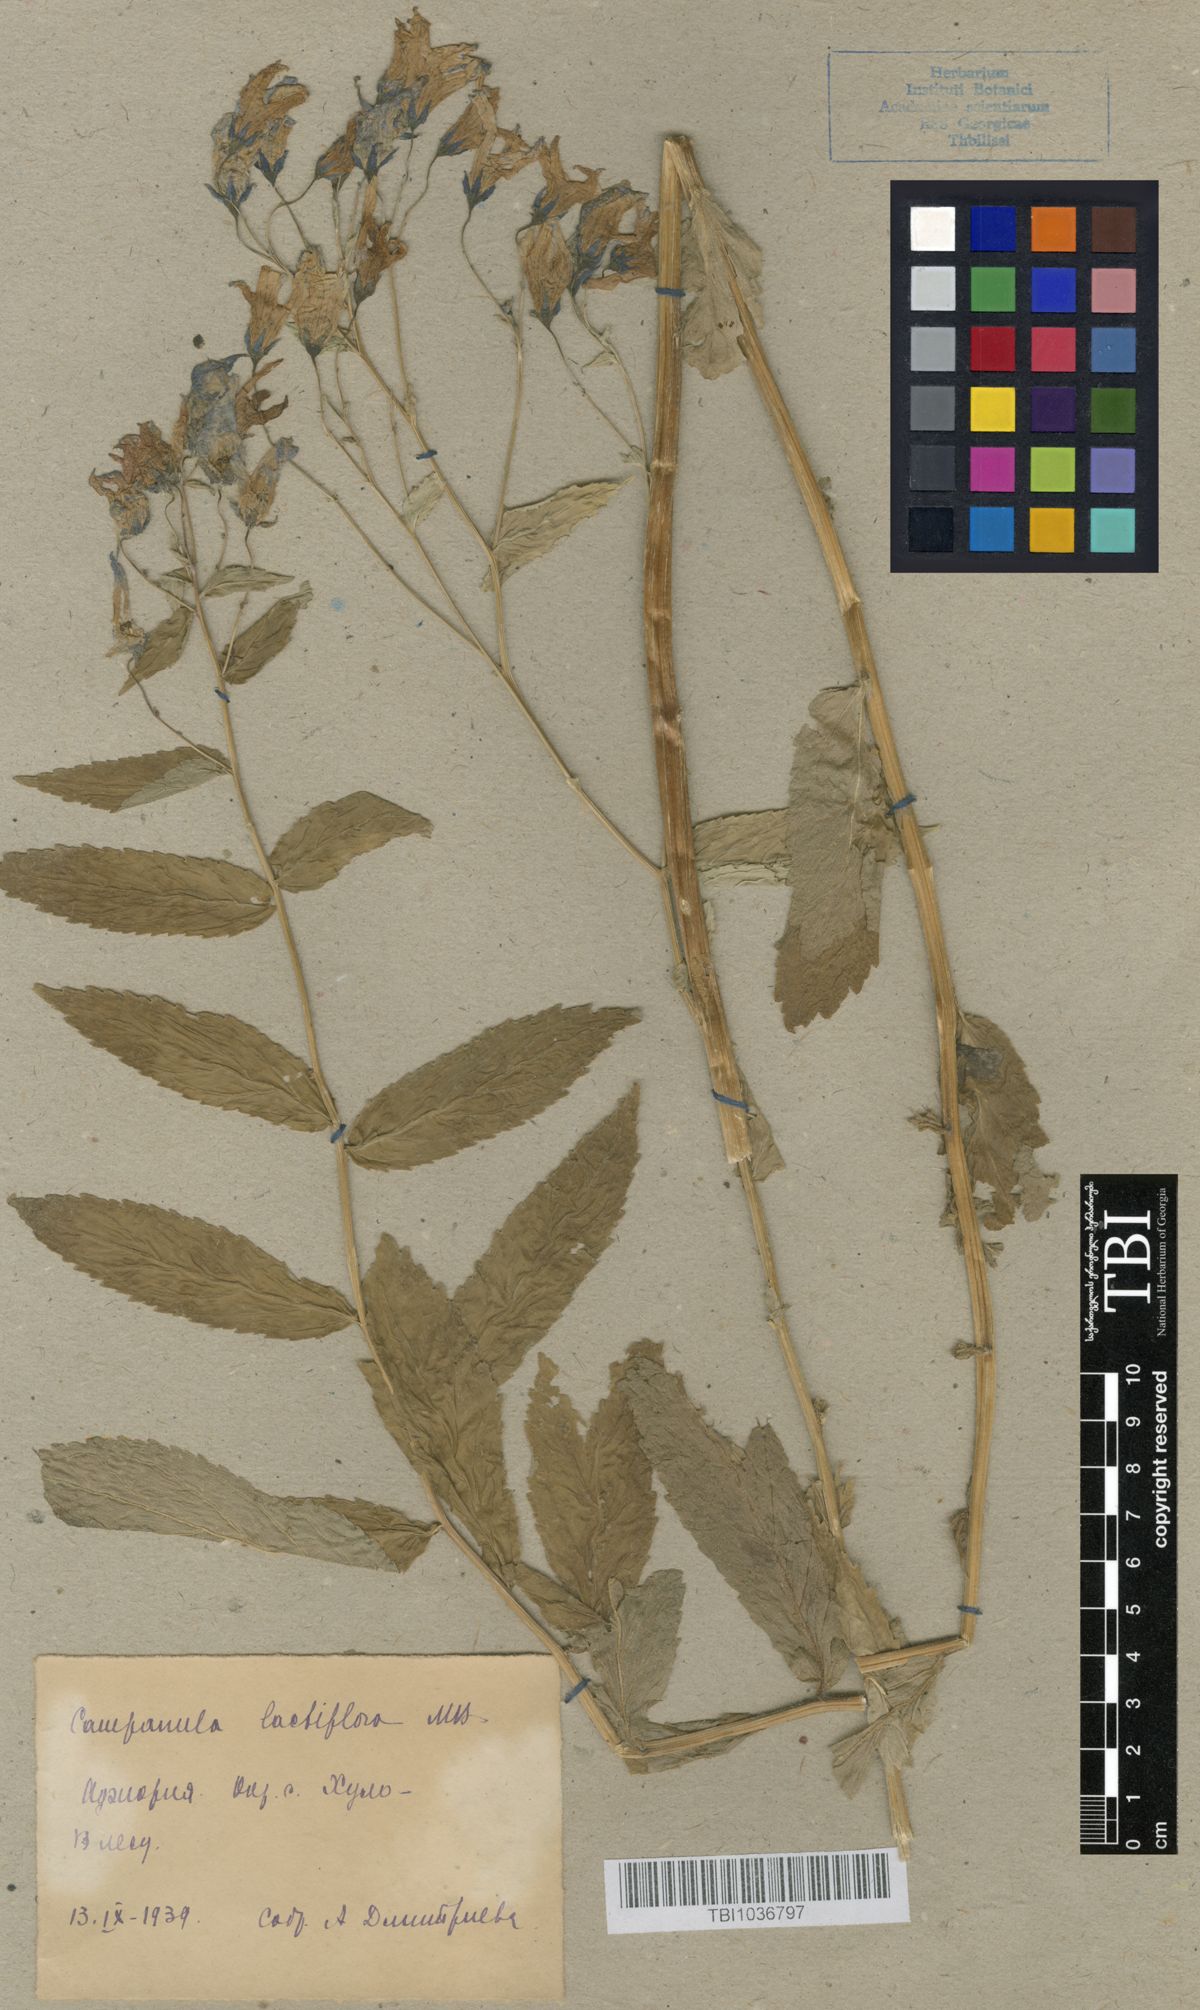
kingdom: Plantae
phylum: Tracheophyta
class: Magnoliopsida
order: Asterales
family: Campanulaceae
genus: Campanula
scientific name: Campanula lactiflora
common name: Milky bellflower
